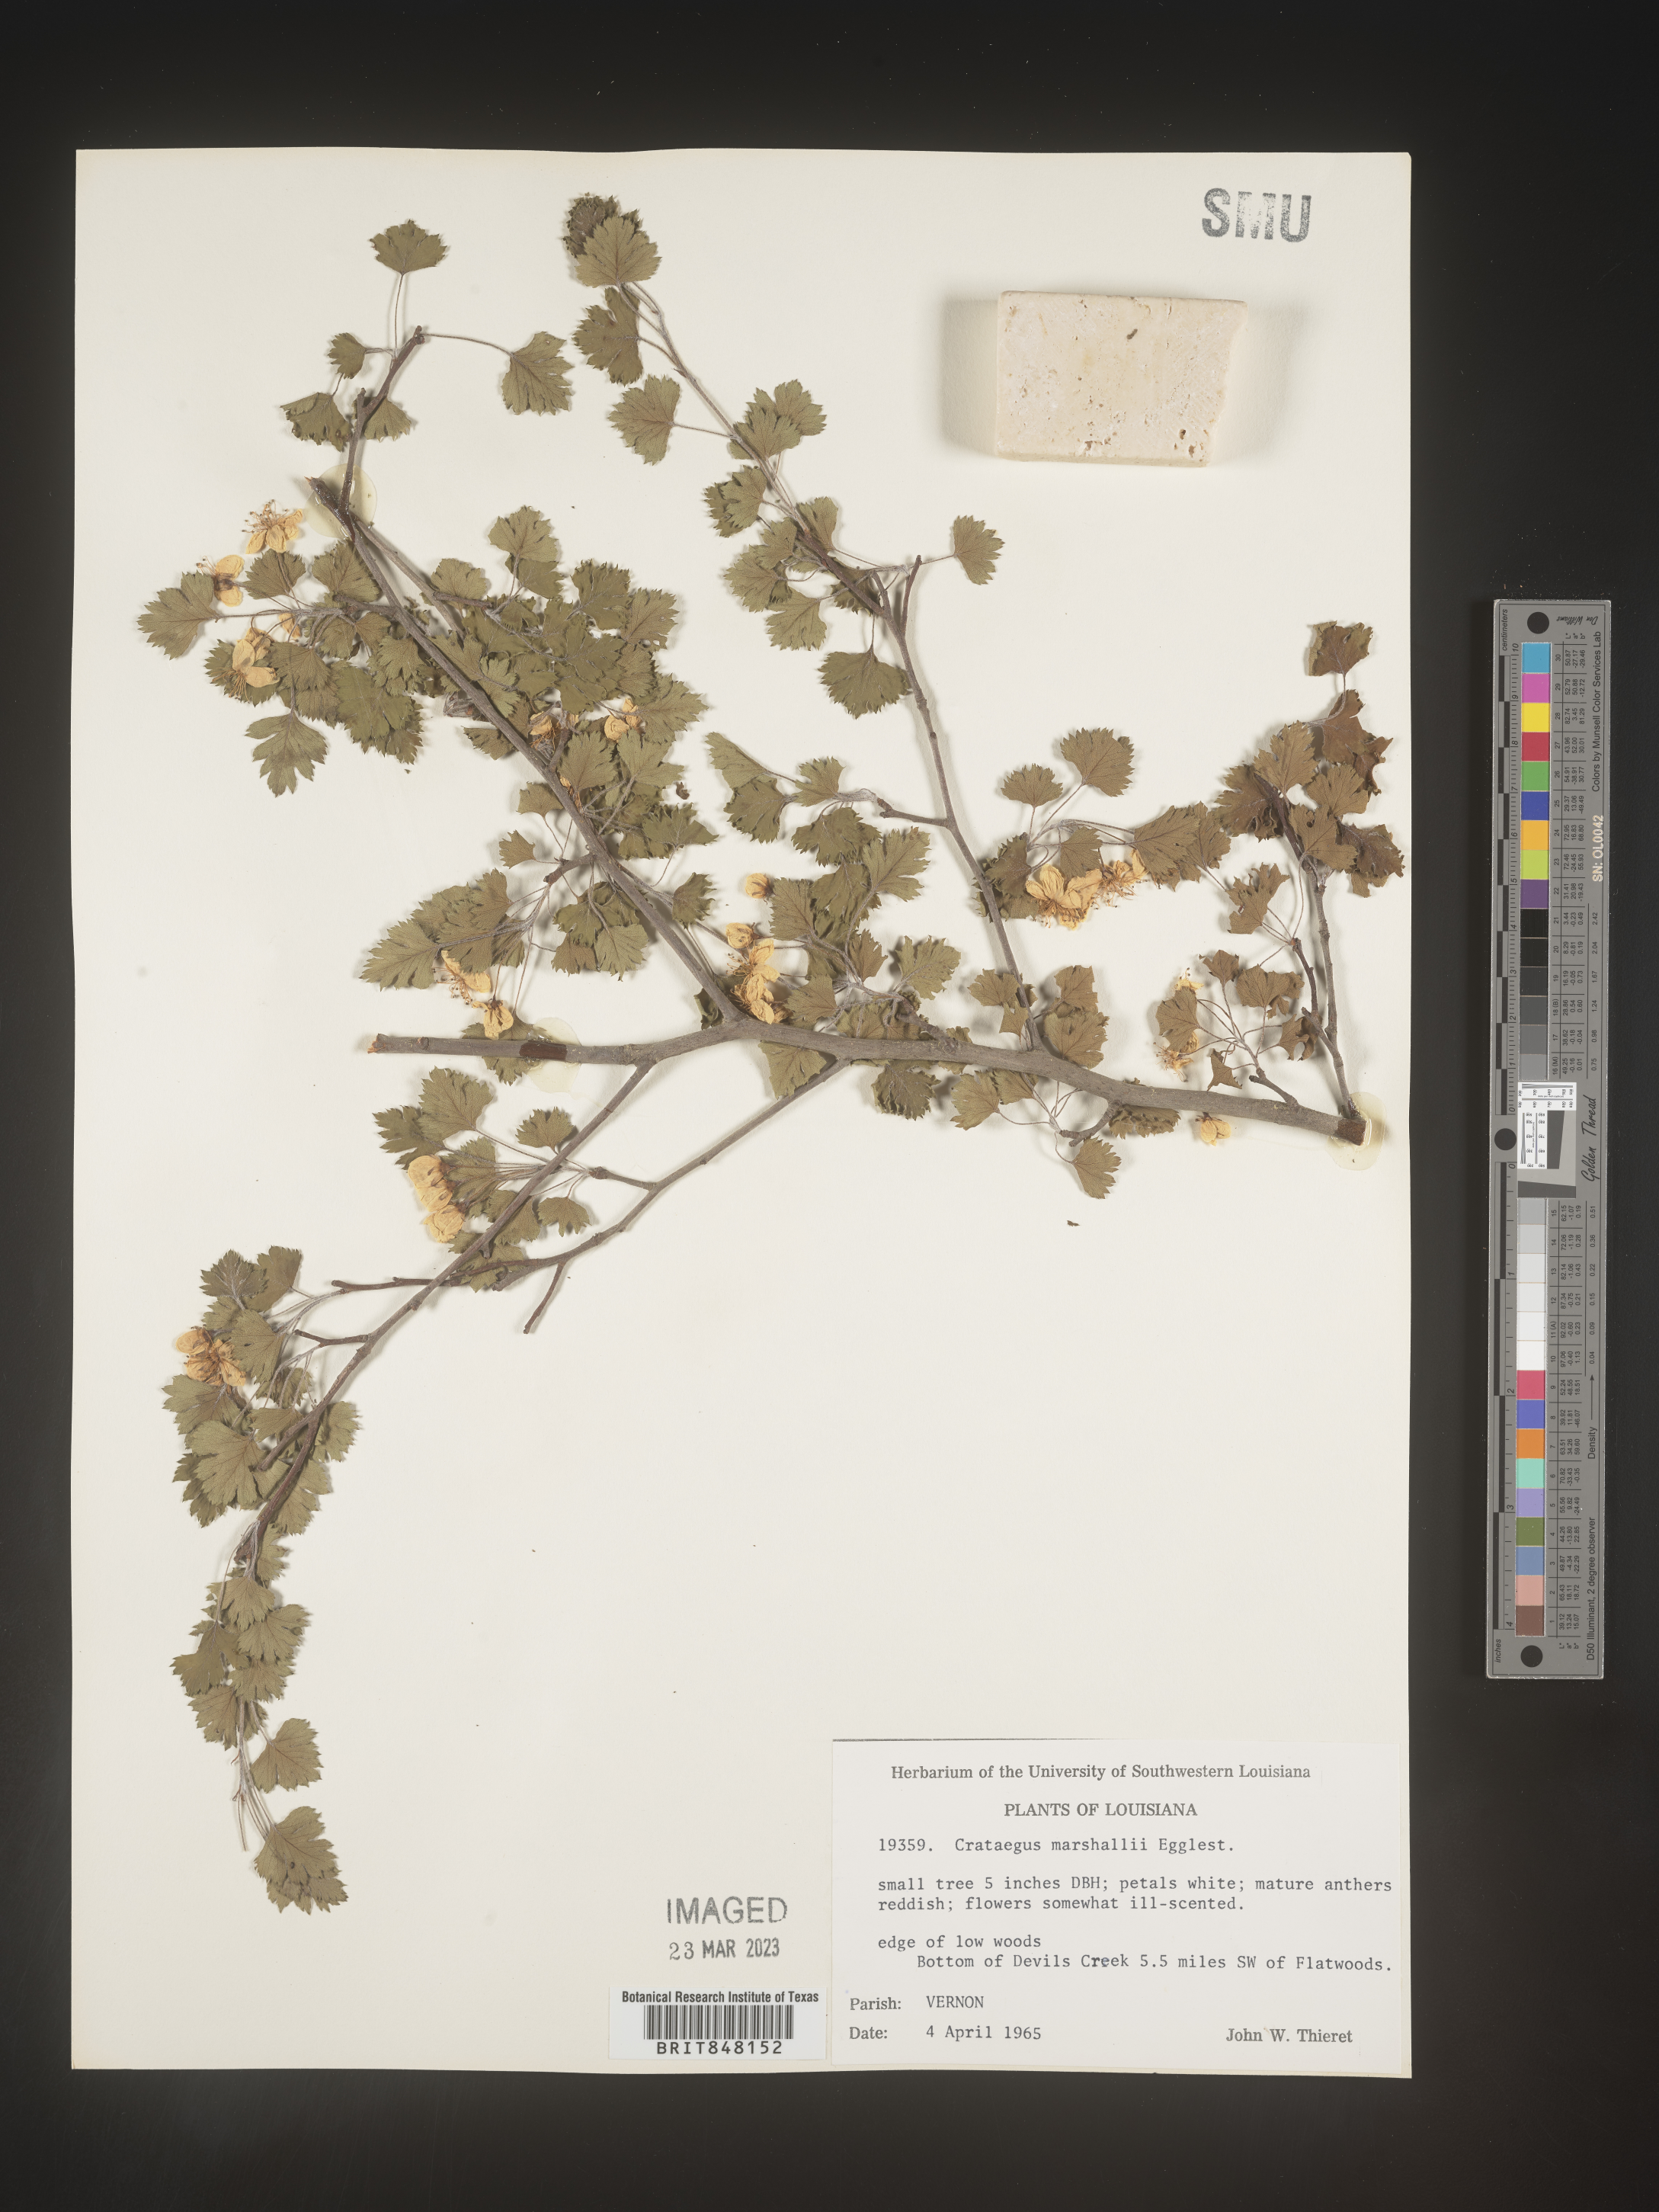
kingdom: Plantae
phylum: Tracheophyta
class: Magnoliopsida
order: Rosales
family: Rosaceae
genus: Crataegus
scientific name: Crataegus marshallii
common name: Parsley-hawthorn
